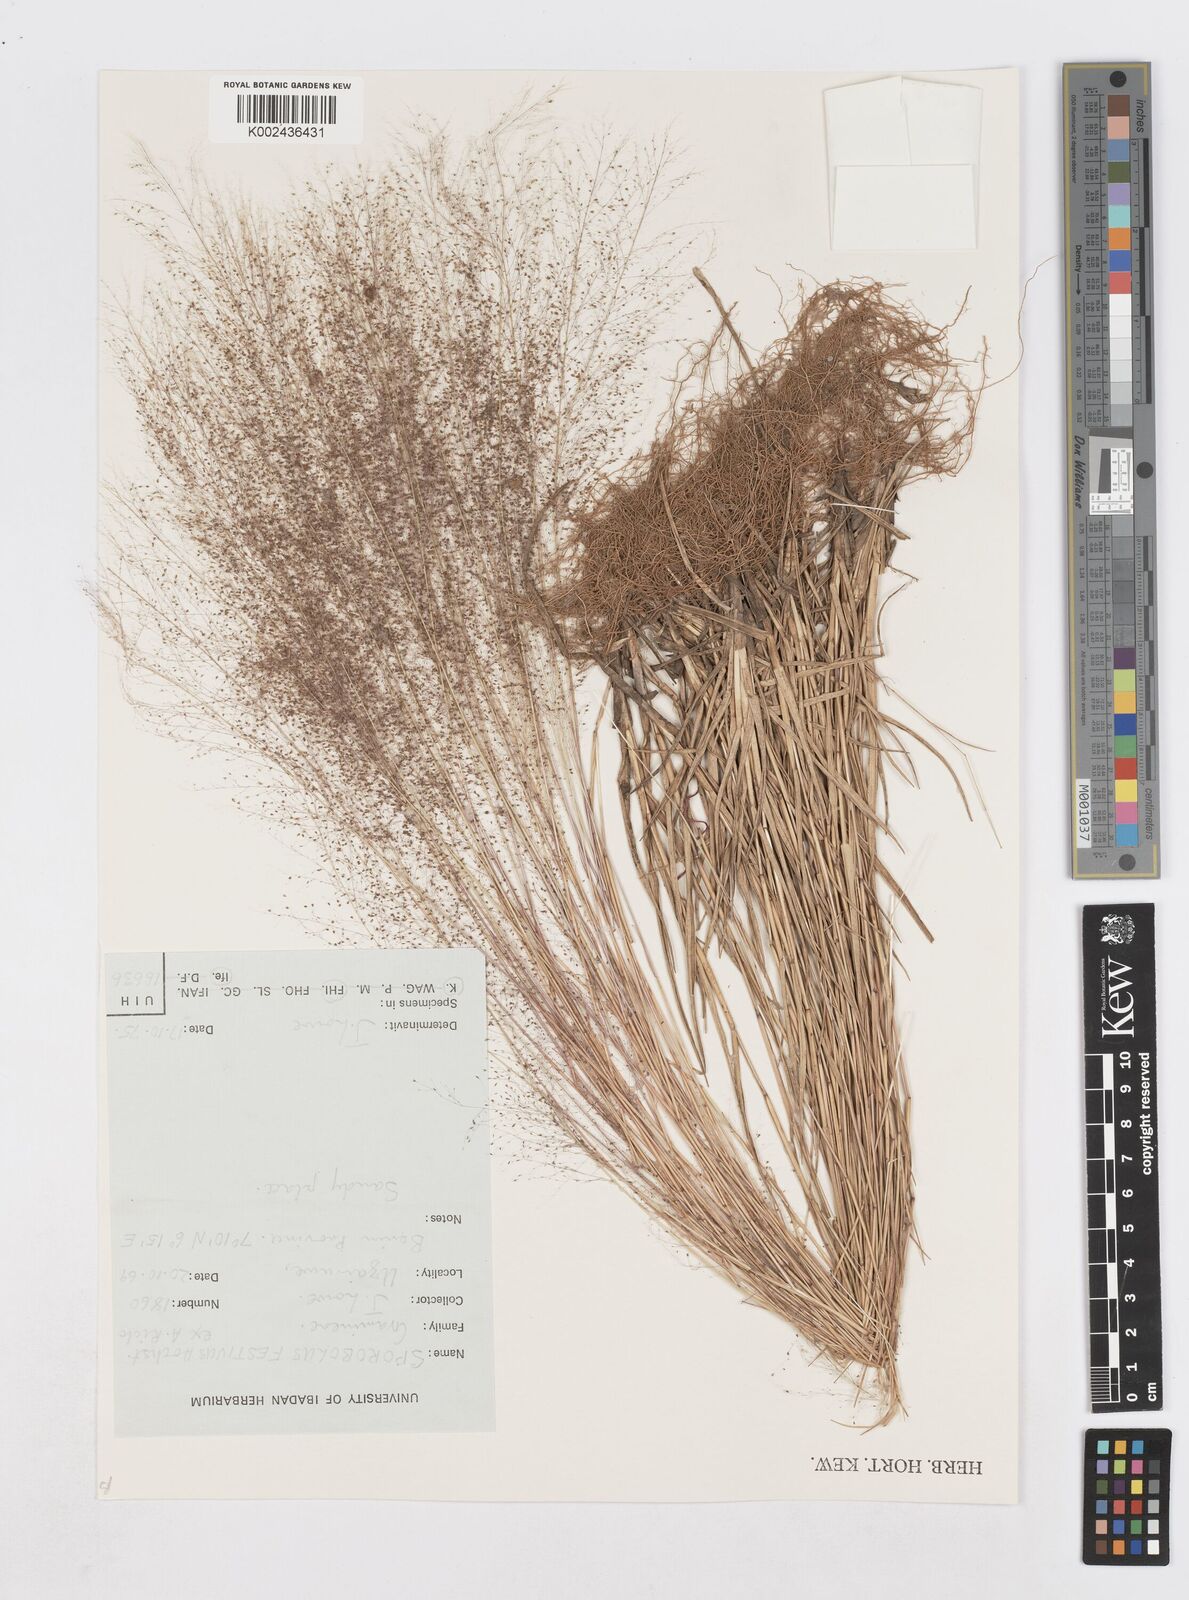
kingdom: Plantae
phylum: Tracheophyta
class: Liliopsida
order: Poales
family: Poaceae
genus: Sporobolus
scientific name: Sporobolus festivus
